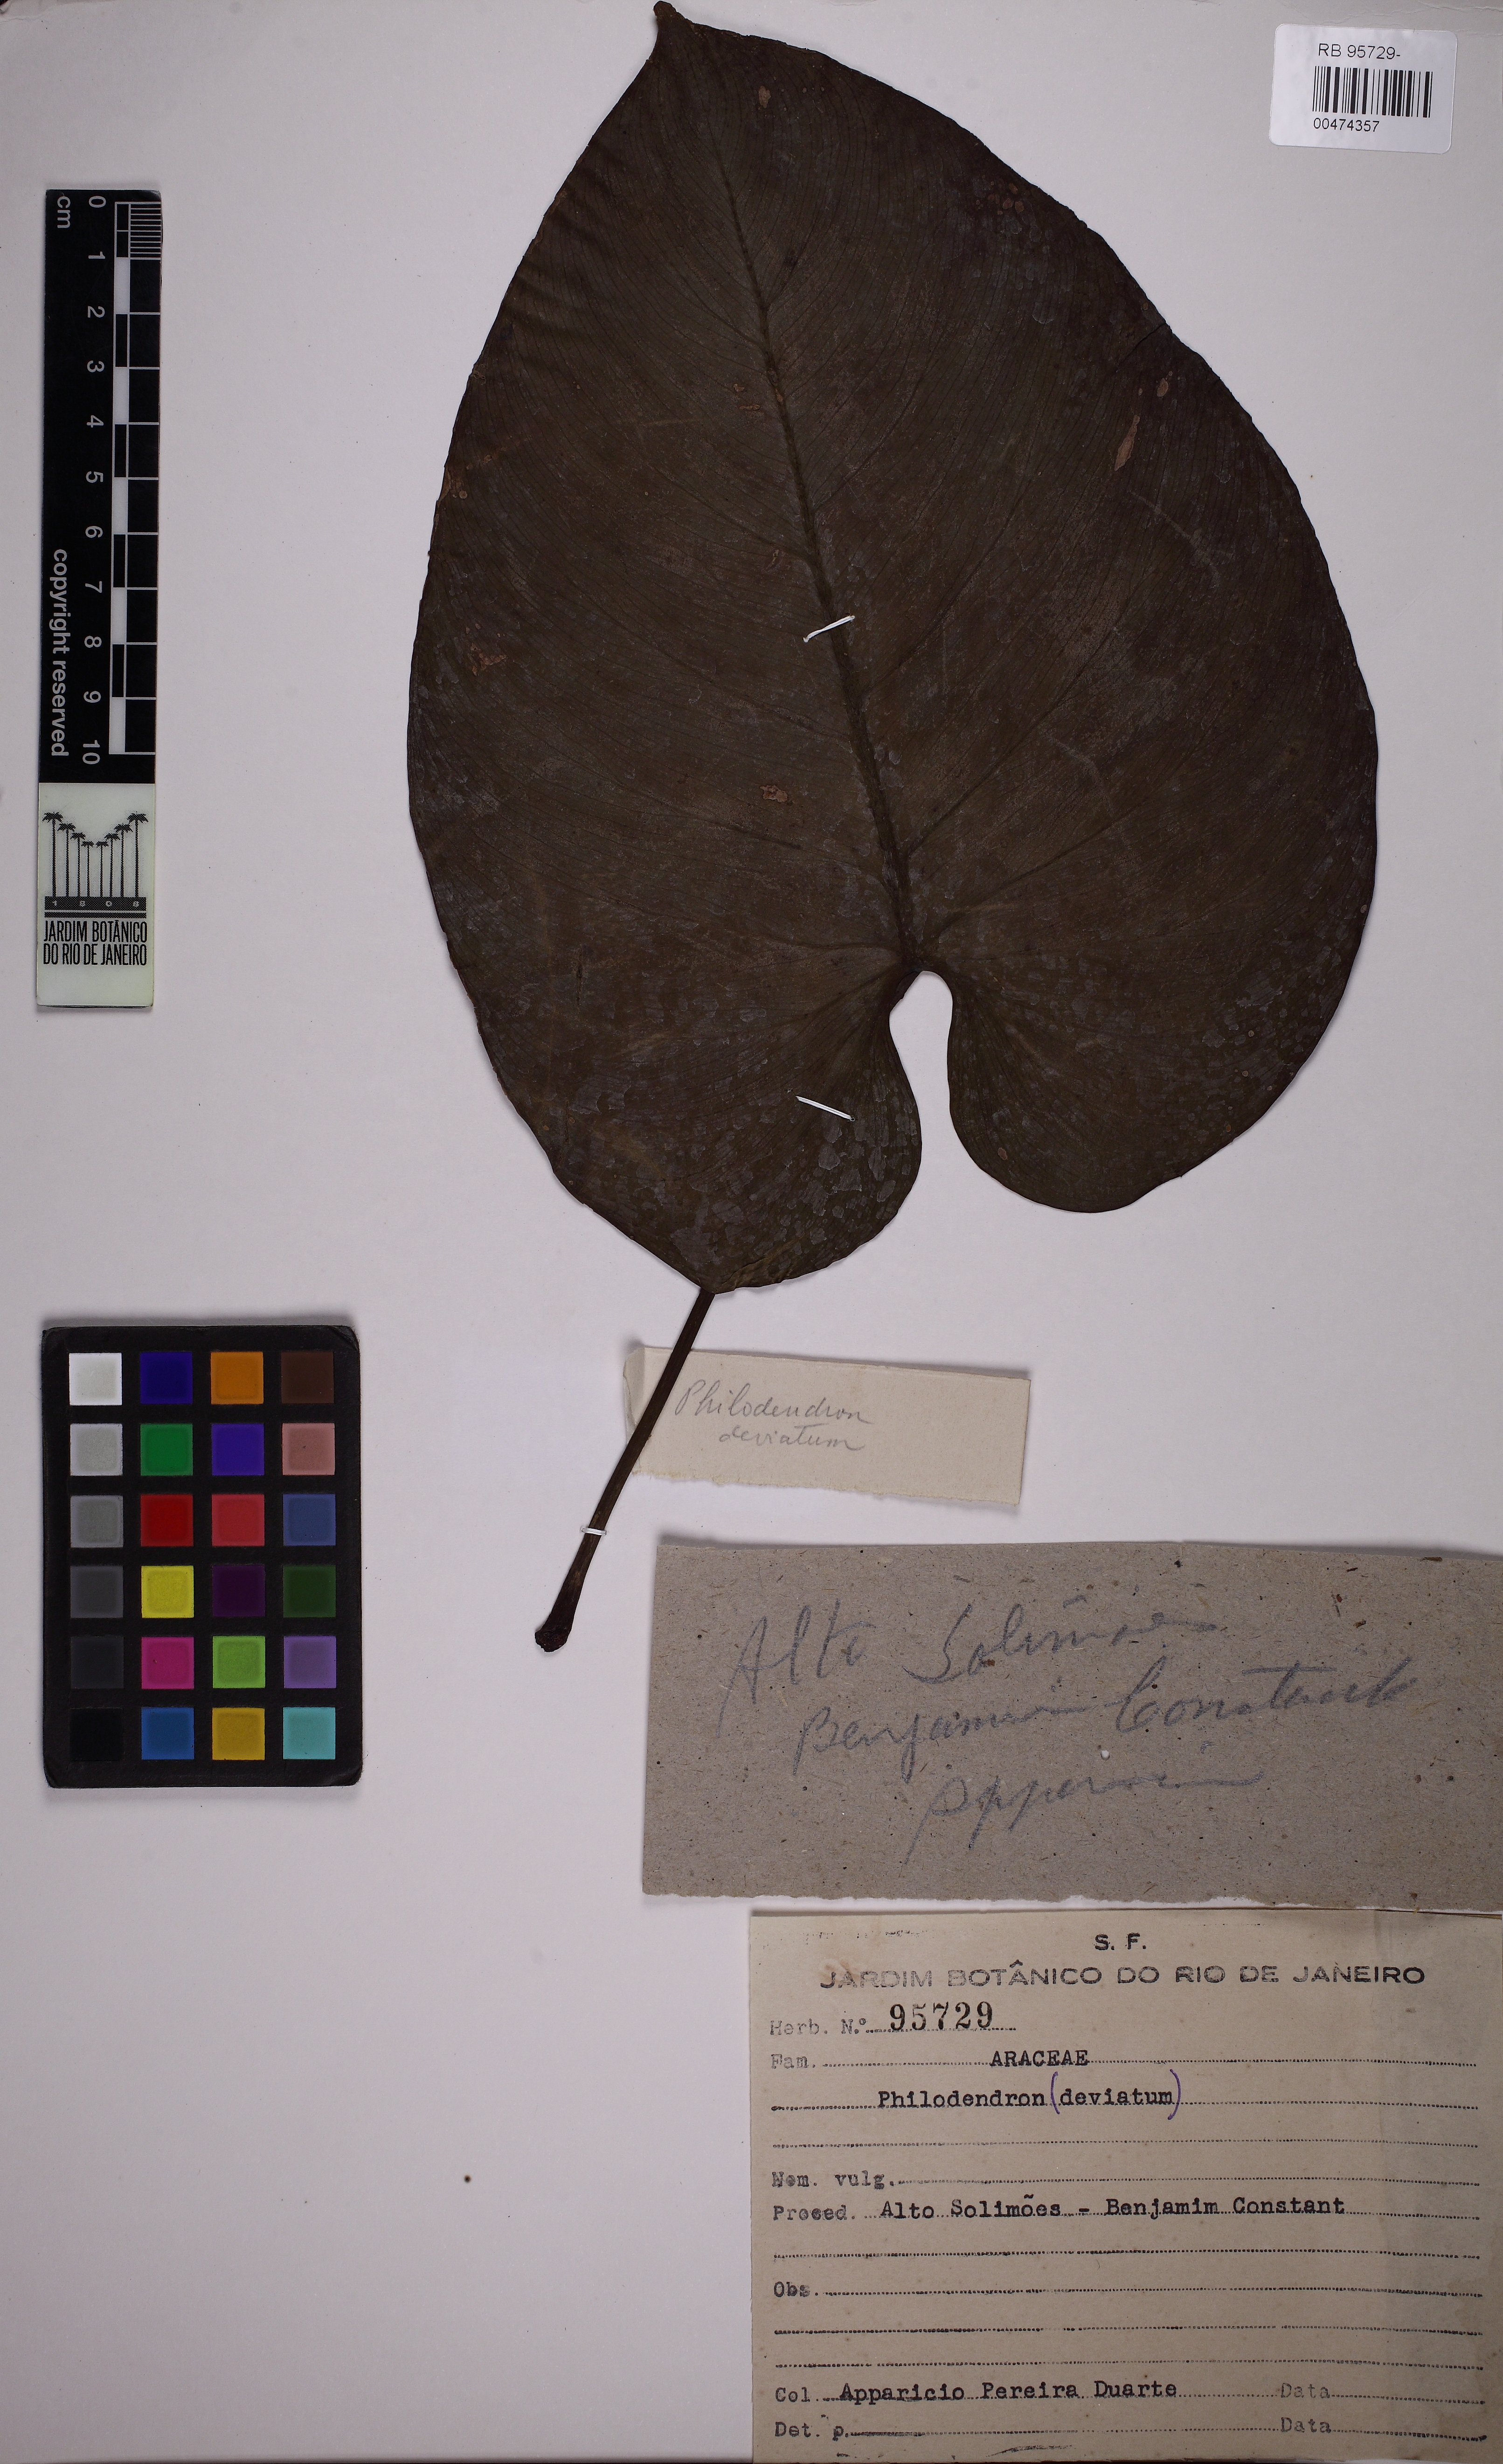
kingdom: Plantae
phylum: Tracheophyta
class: Liliopsida
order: Alismatales
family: Araceae
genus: Philodendron
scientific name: Philodendron brandtianum
